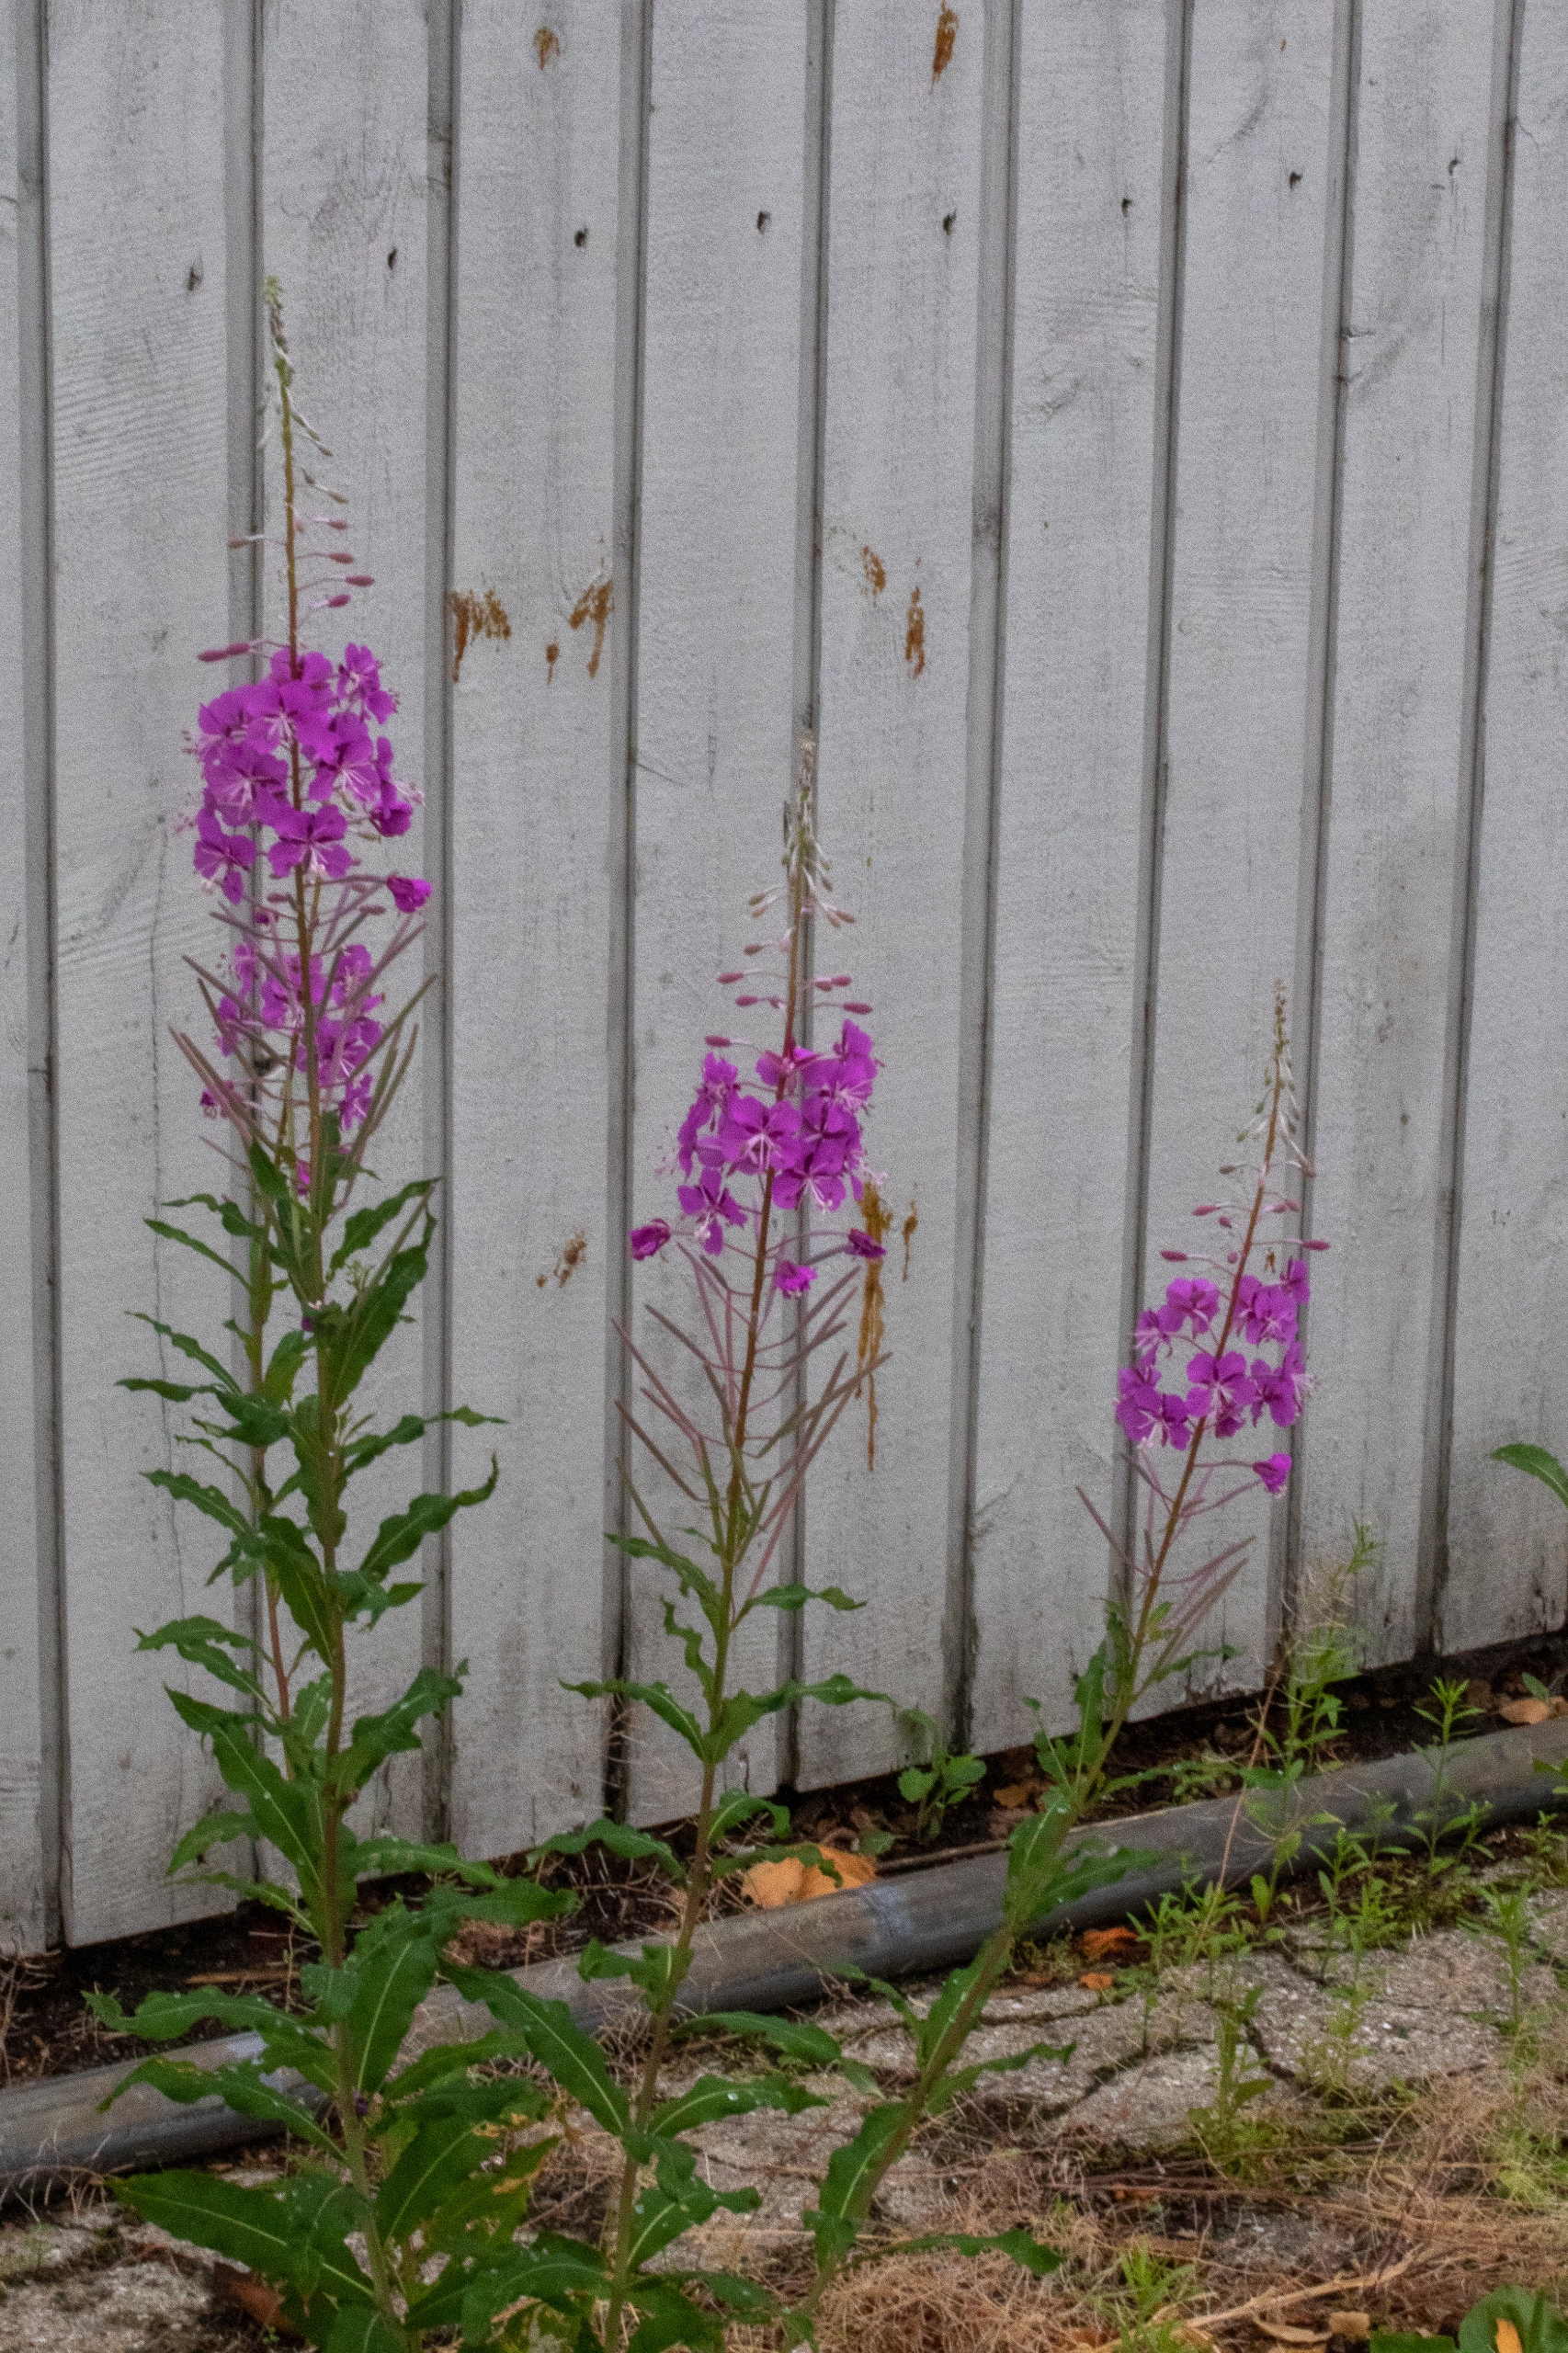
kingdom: Plantae
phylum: Tracheophyta
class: Magnoliopsida
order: Myrtales
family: Onagraceae
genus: Chamaenerion
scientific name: Chamaenerion angustifolium
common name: Gederams
